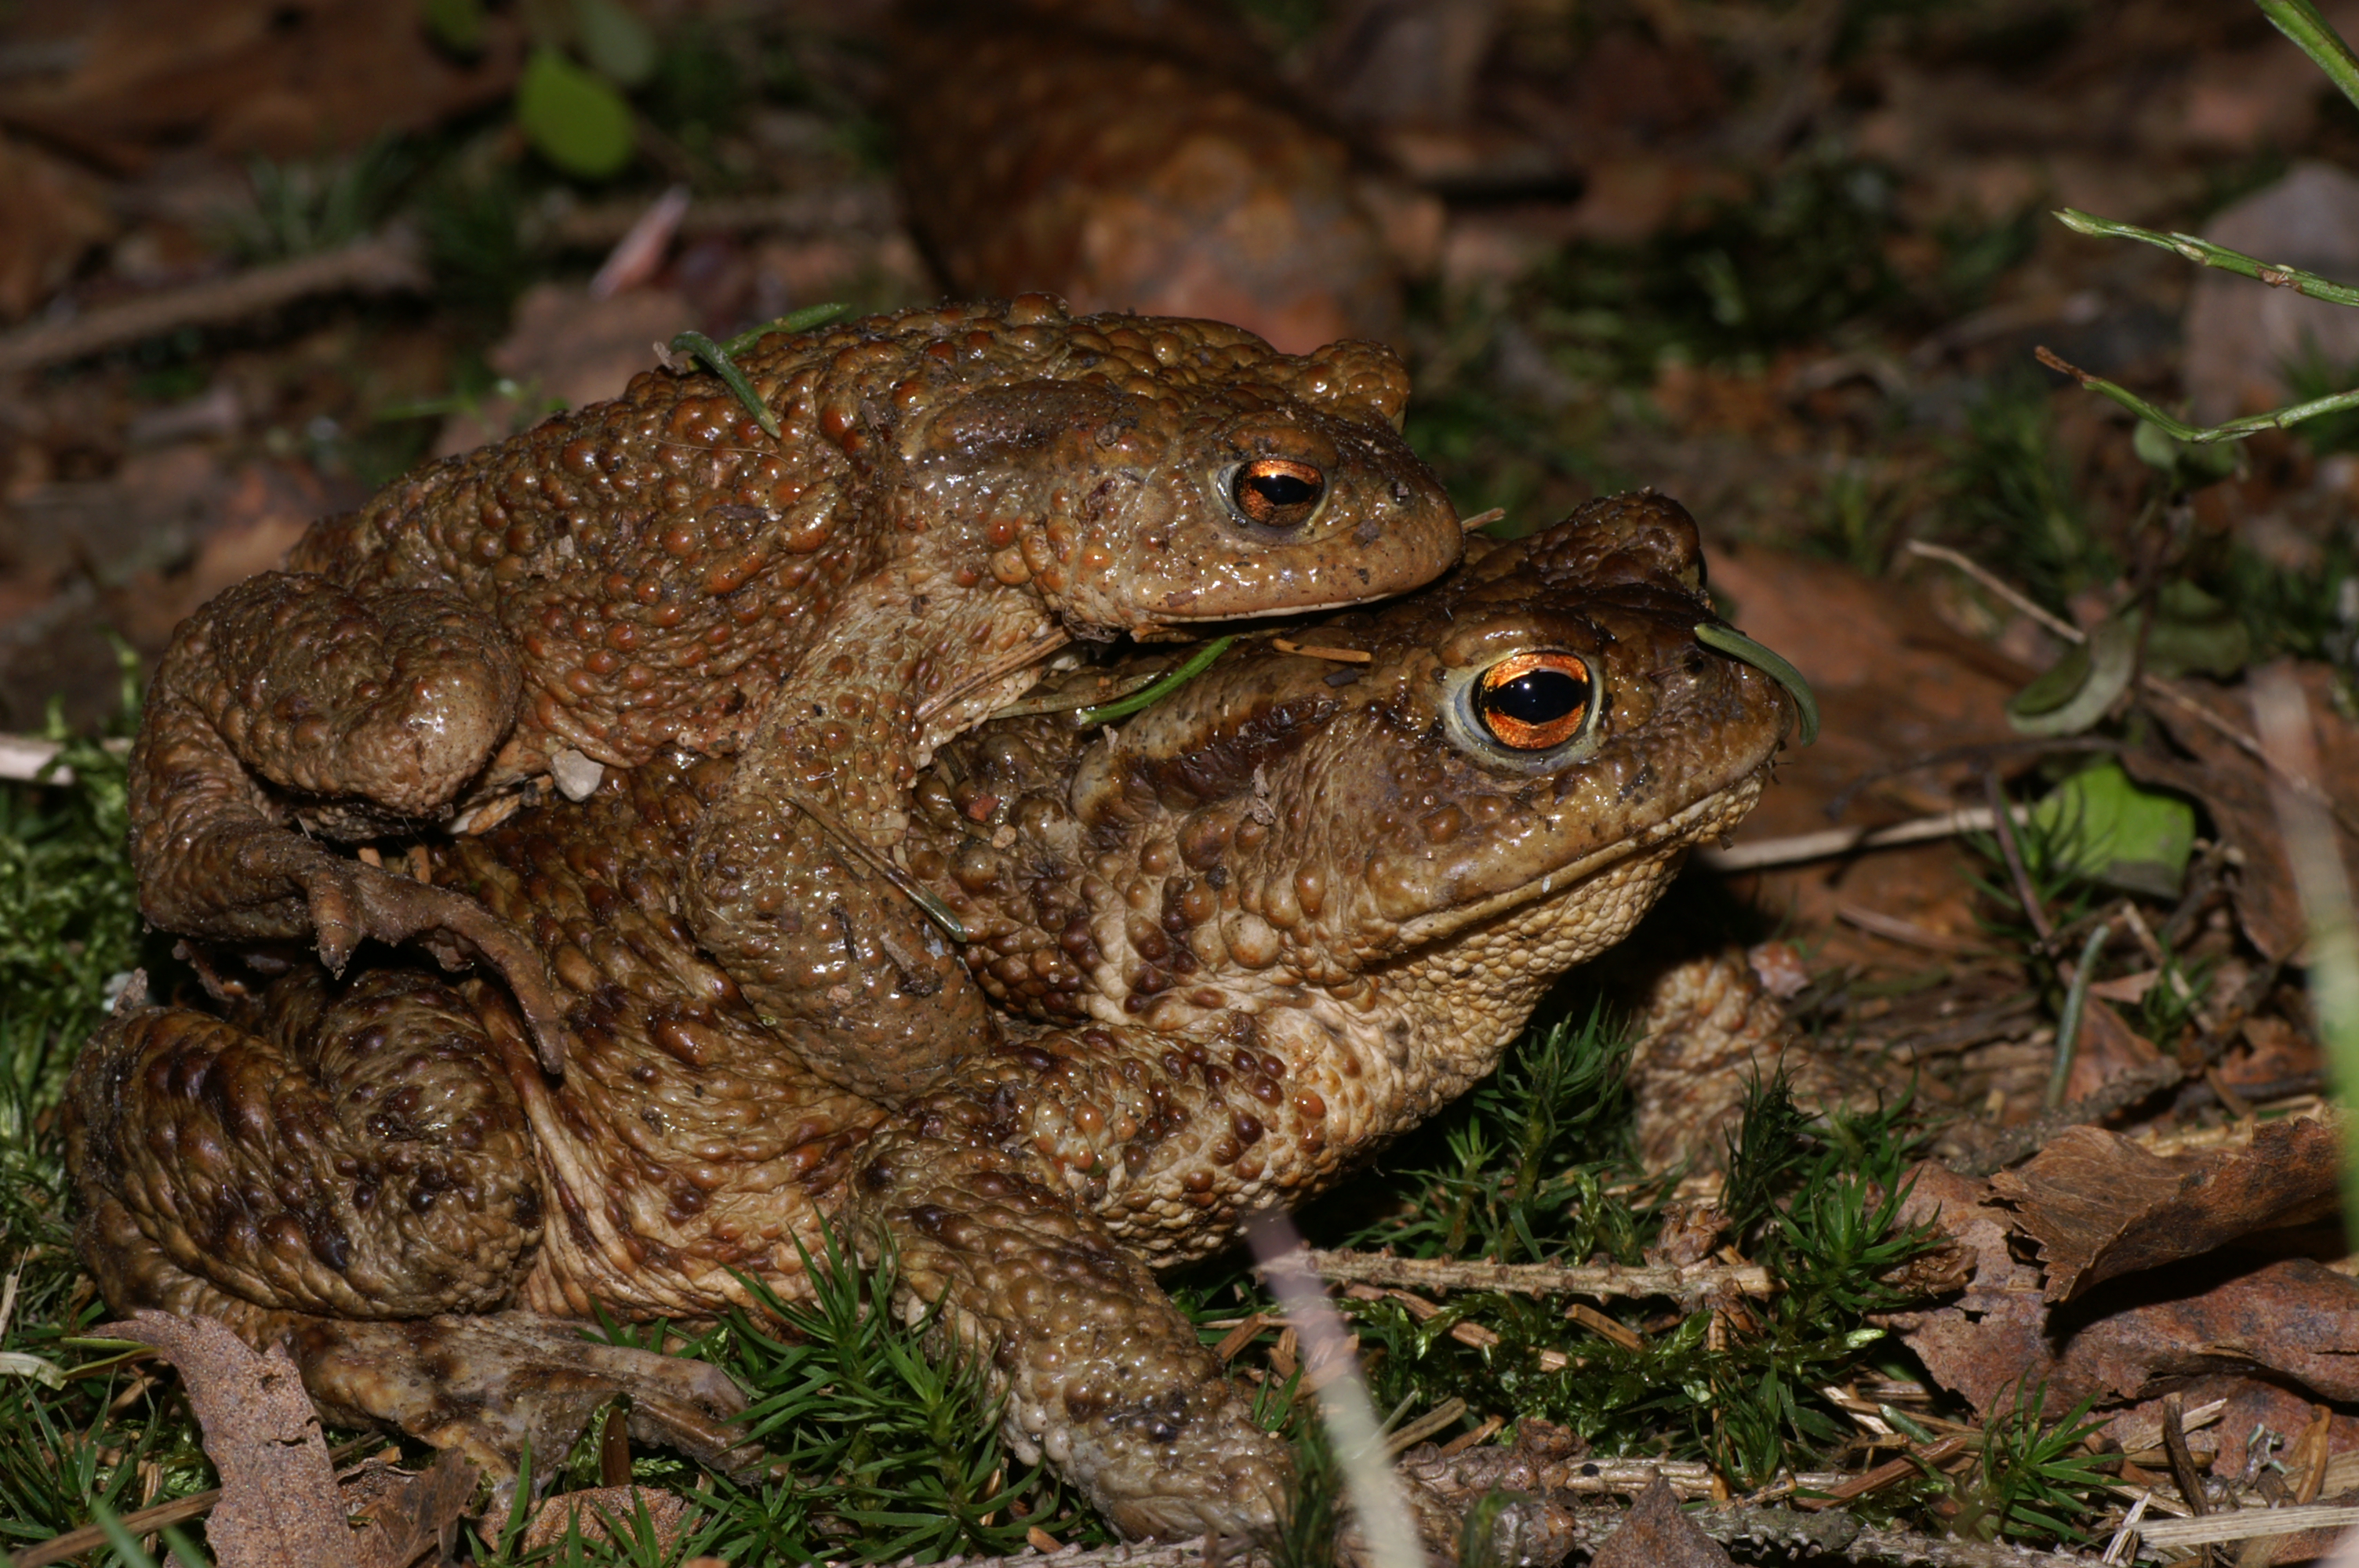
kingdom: Animalia
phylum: Chordata
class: Amphibia
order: Anura
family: Bufonidae
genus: Bufo
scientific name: Bufo bufo
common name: Common toad
